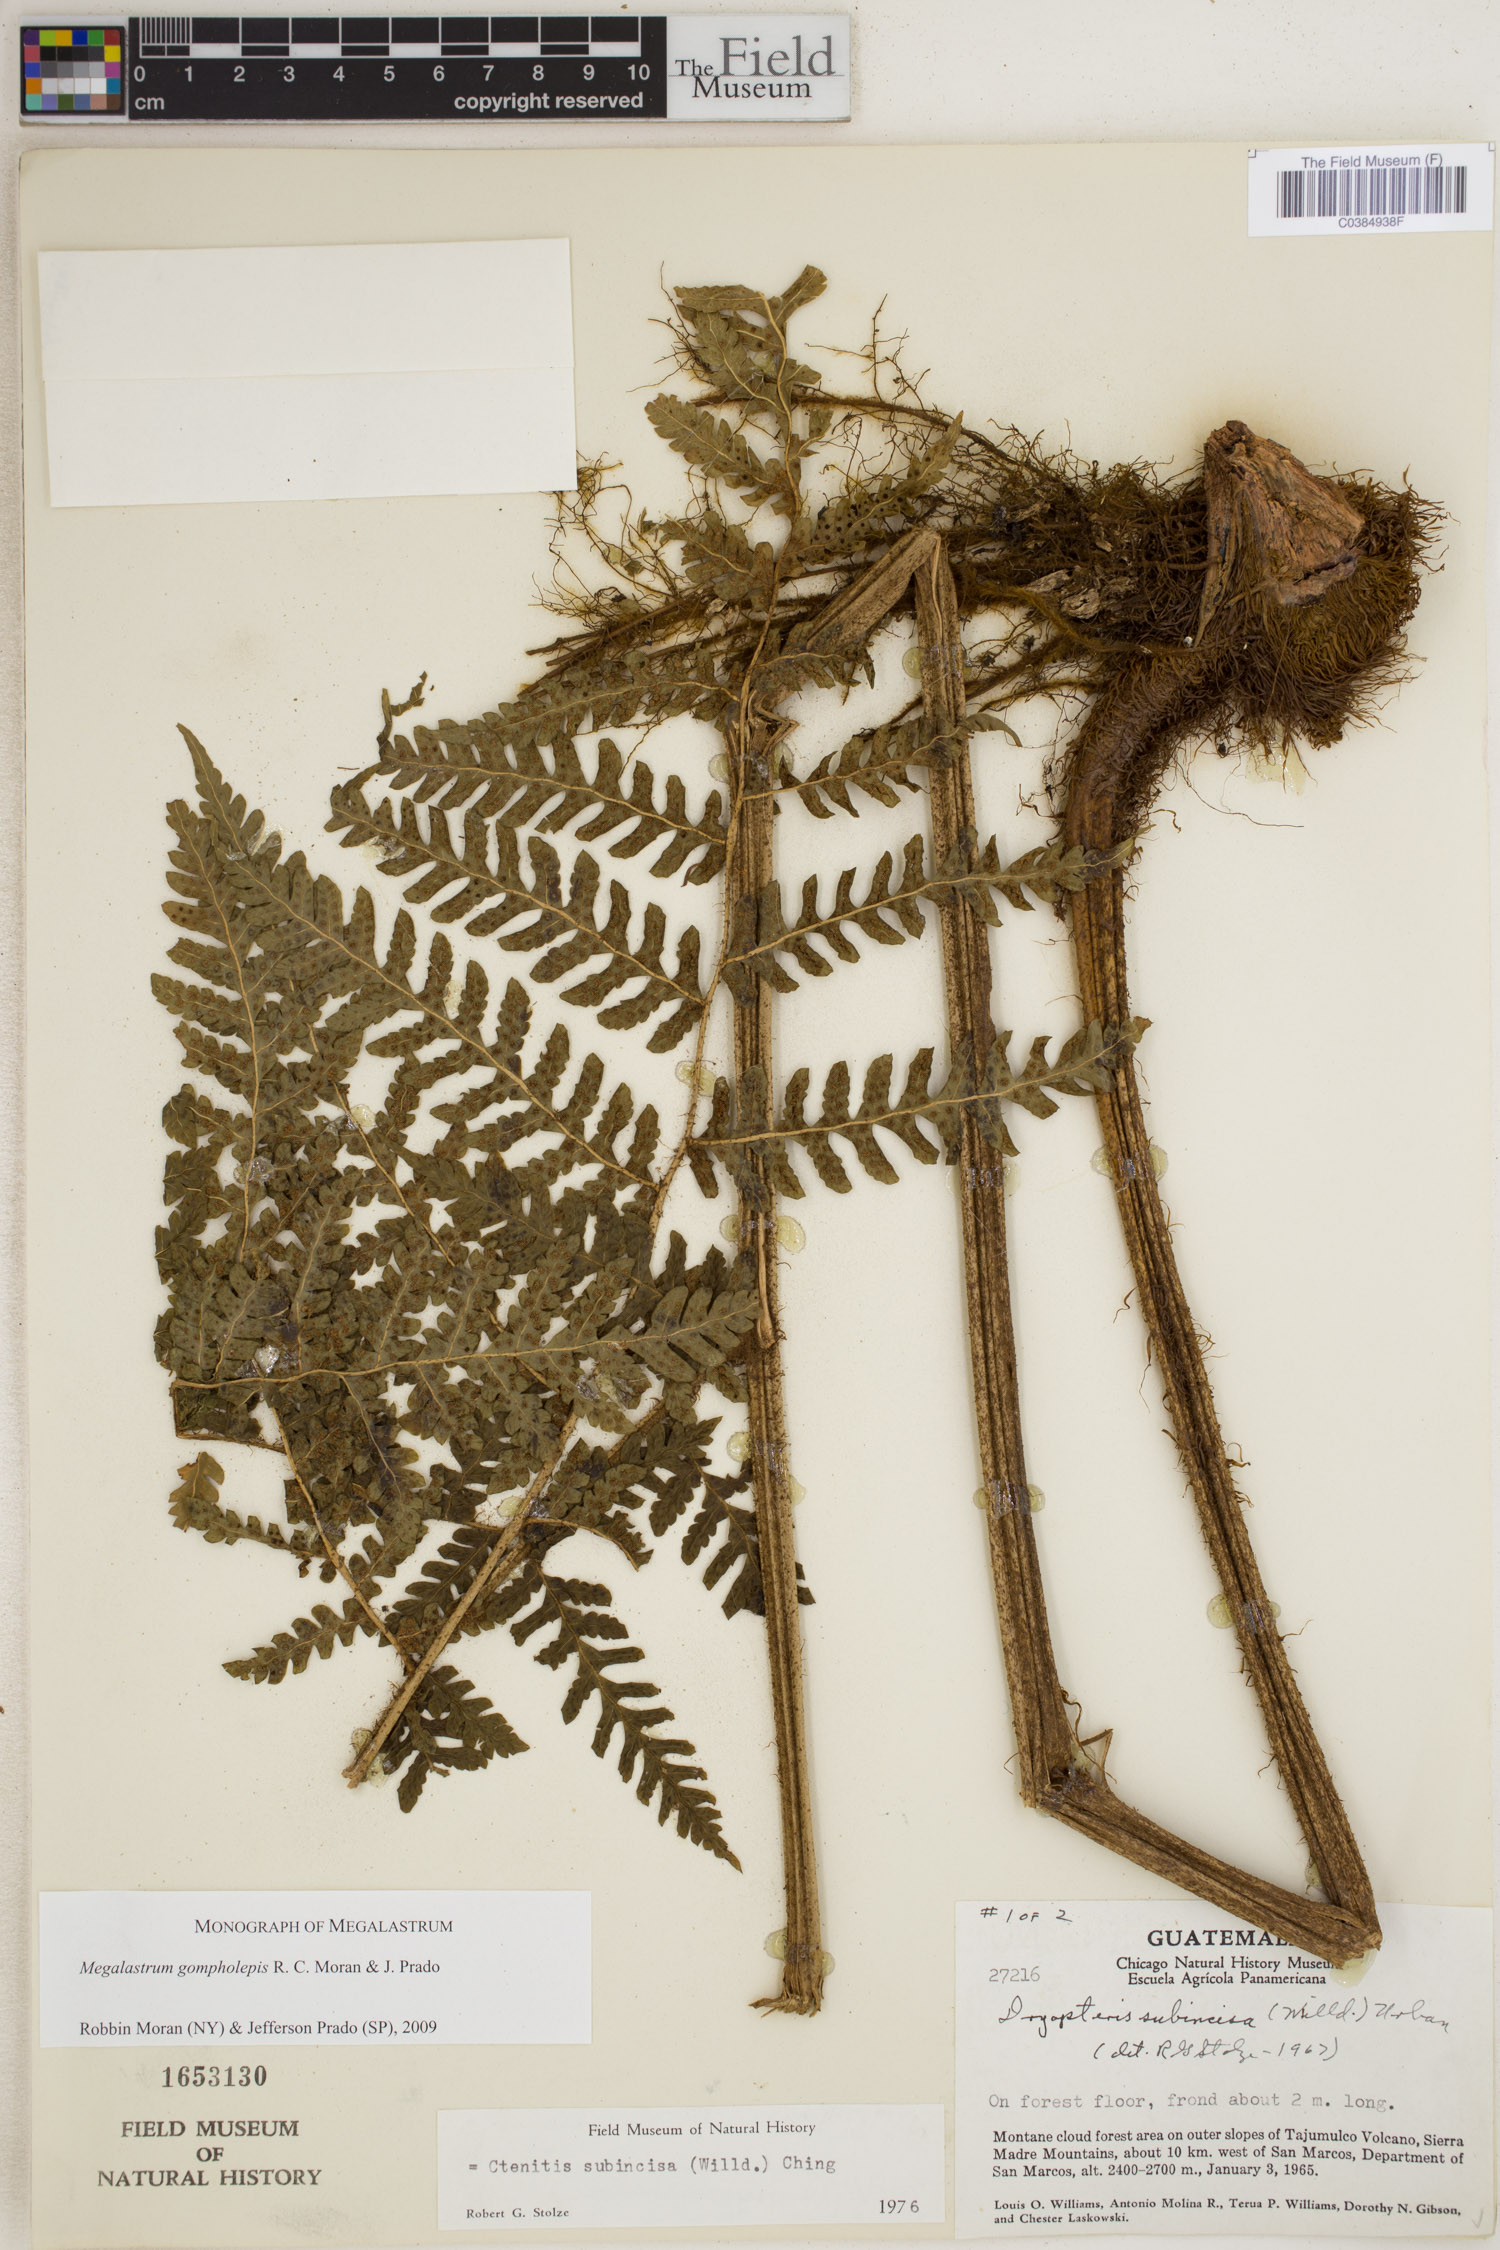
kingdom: Plantae
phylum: Tracheophyta
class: Polypodiopsida
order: Polypodiales
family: Dryopteridaceae
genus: Megalastrum
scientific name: Megalastrum gompholepis
